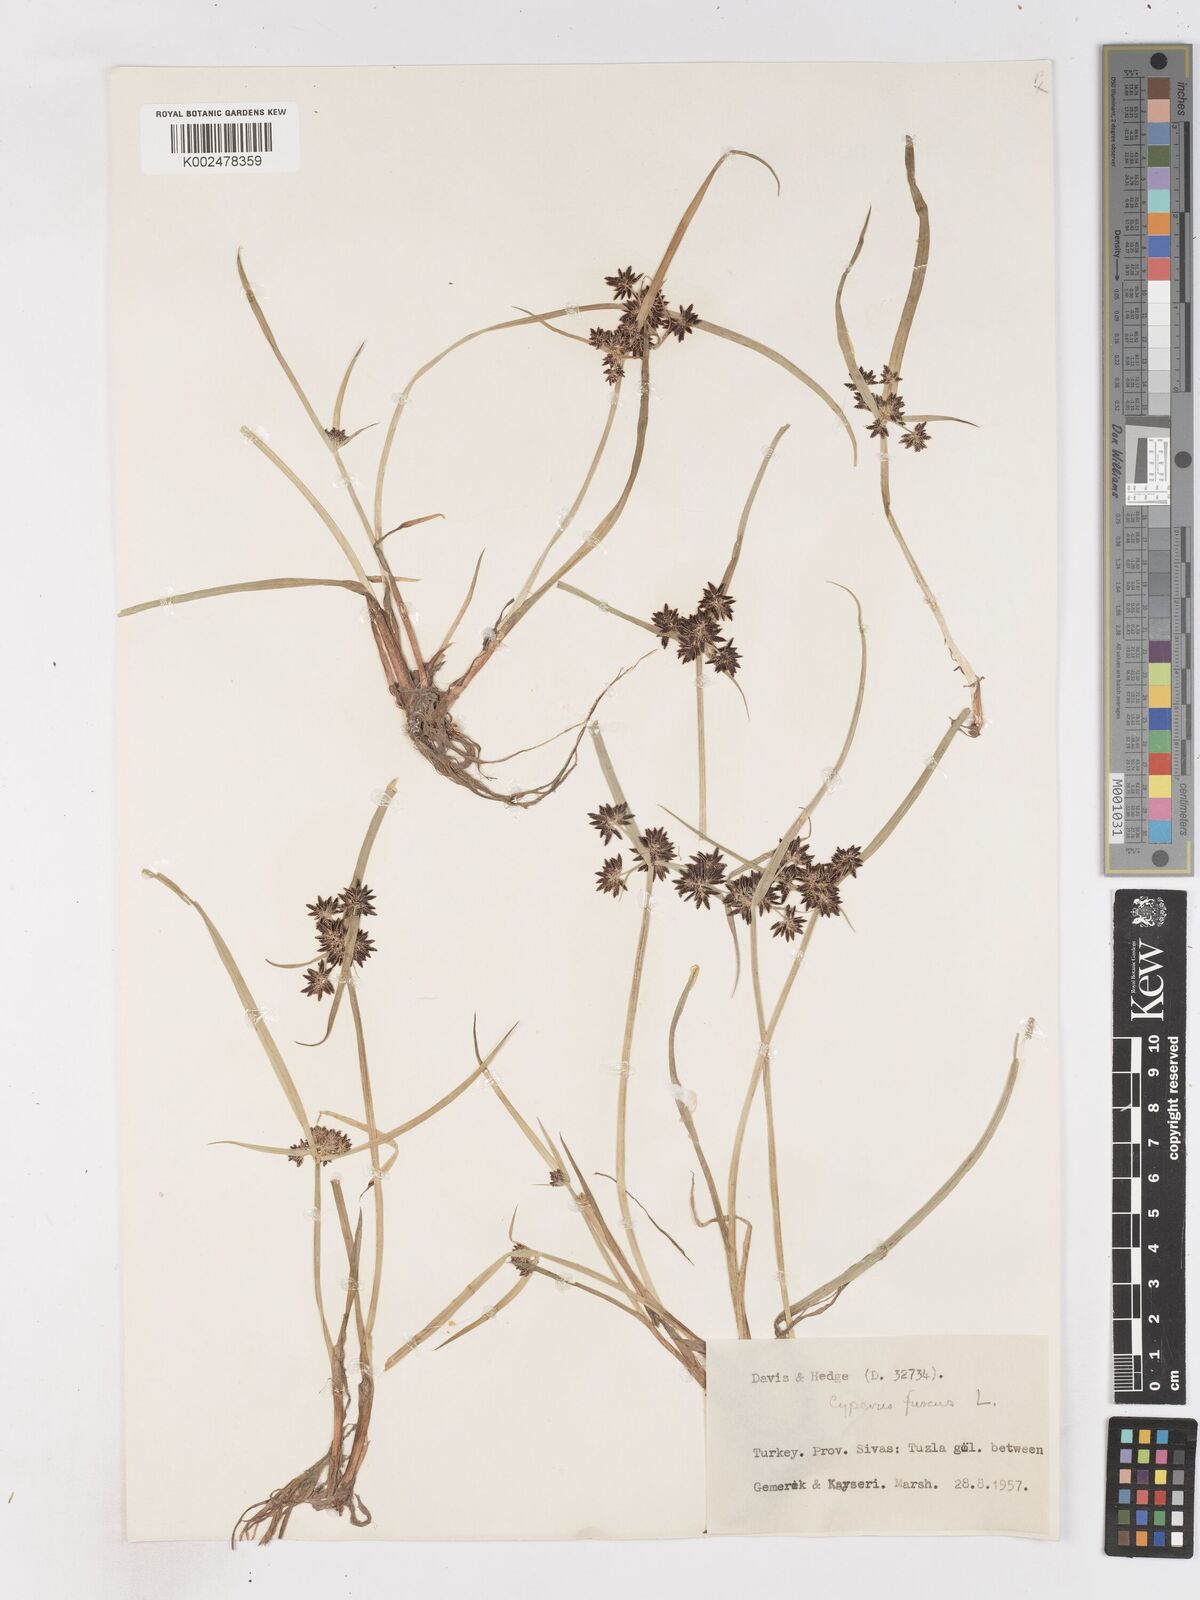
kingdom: Plantae
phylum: Tracheophyta
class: Liliopsida
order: Poales
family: Cyperaceae
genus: Cyperus
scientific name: Cyperus fuscus
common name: Brown galingale
